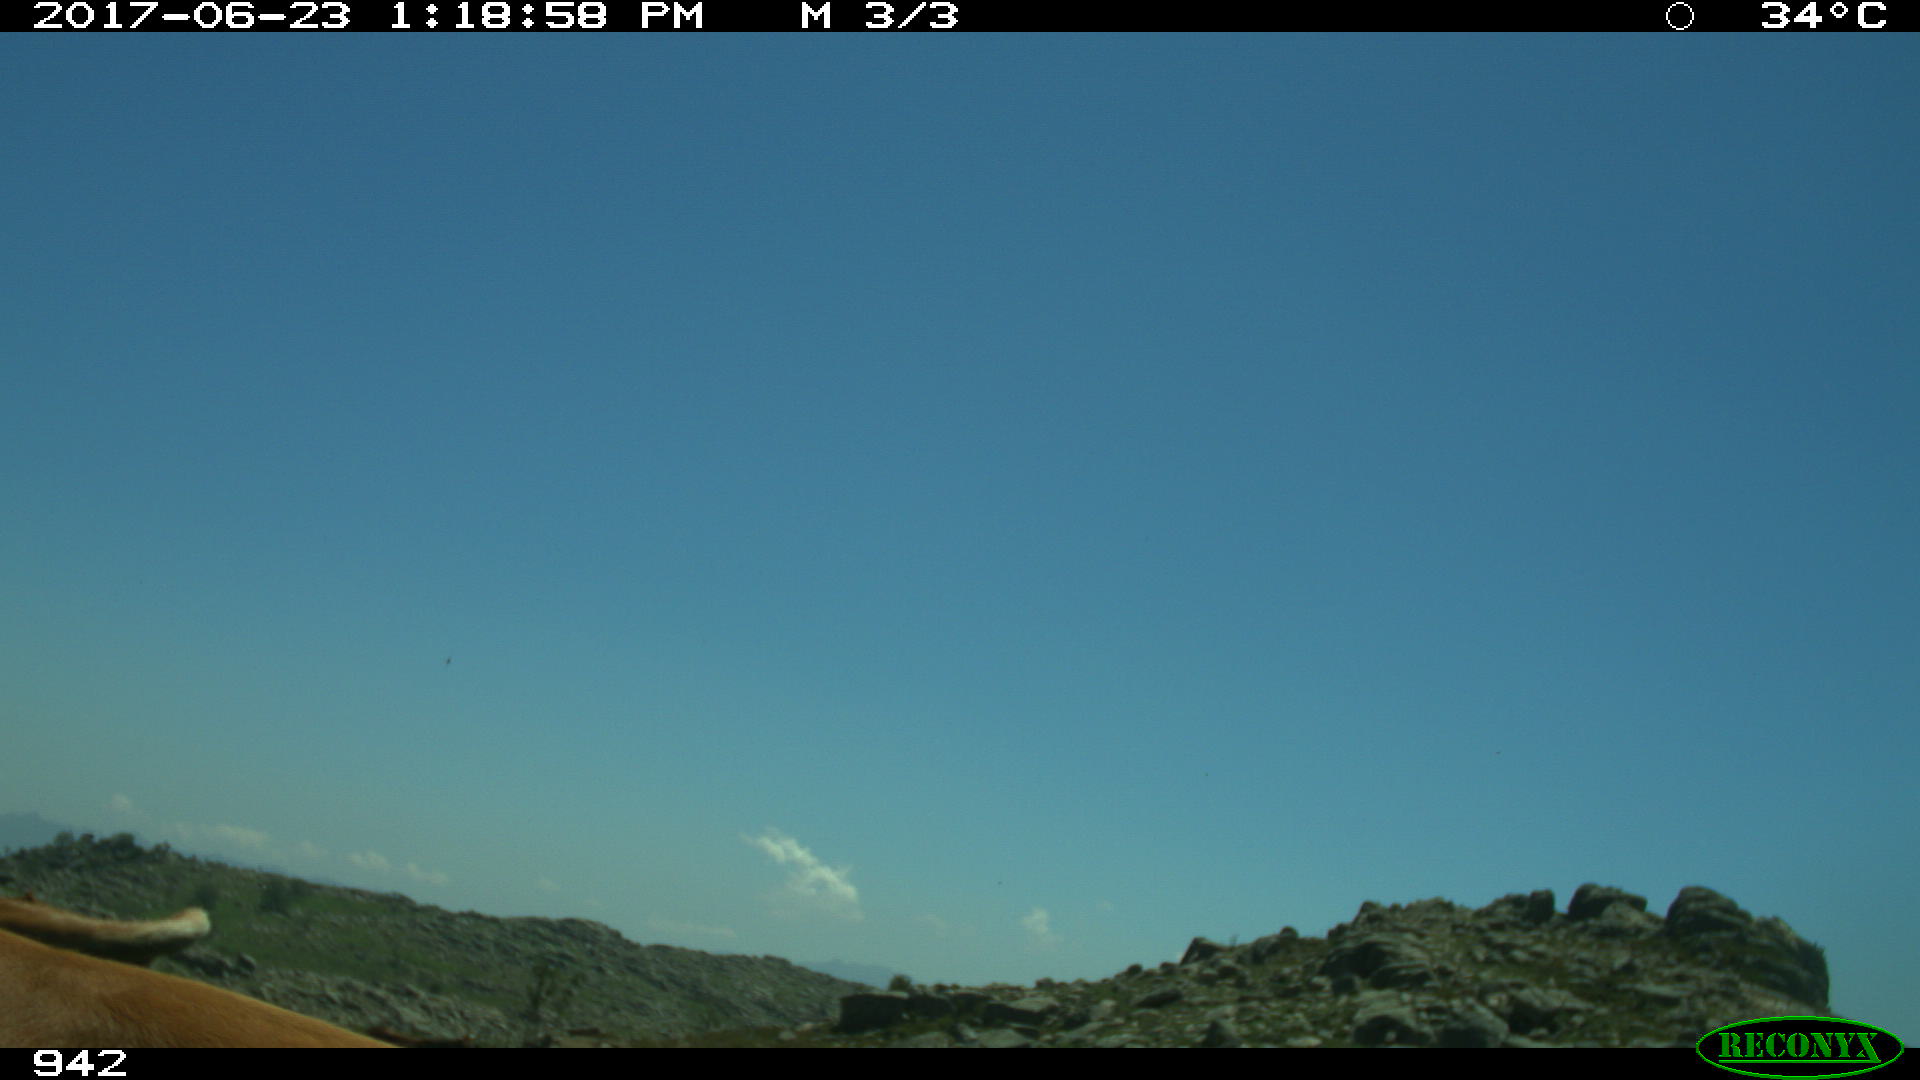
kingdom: Animalia
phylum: Chordata
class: Mammalia
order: Artiodactyla
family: Bovidae
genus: Bos
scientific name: Bos taurus
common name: Domesticated cattle
